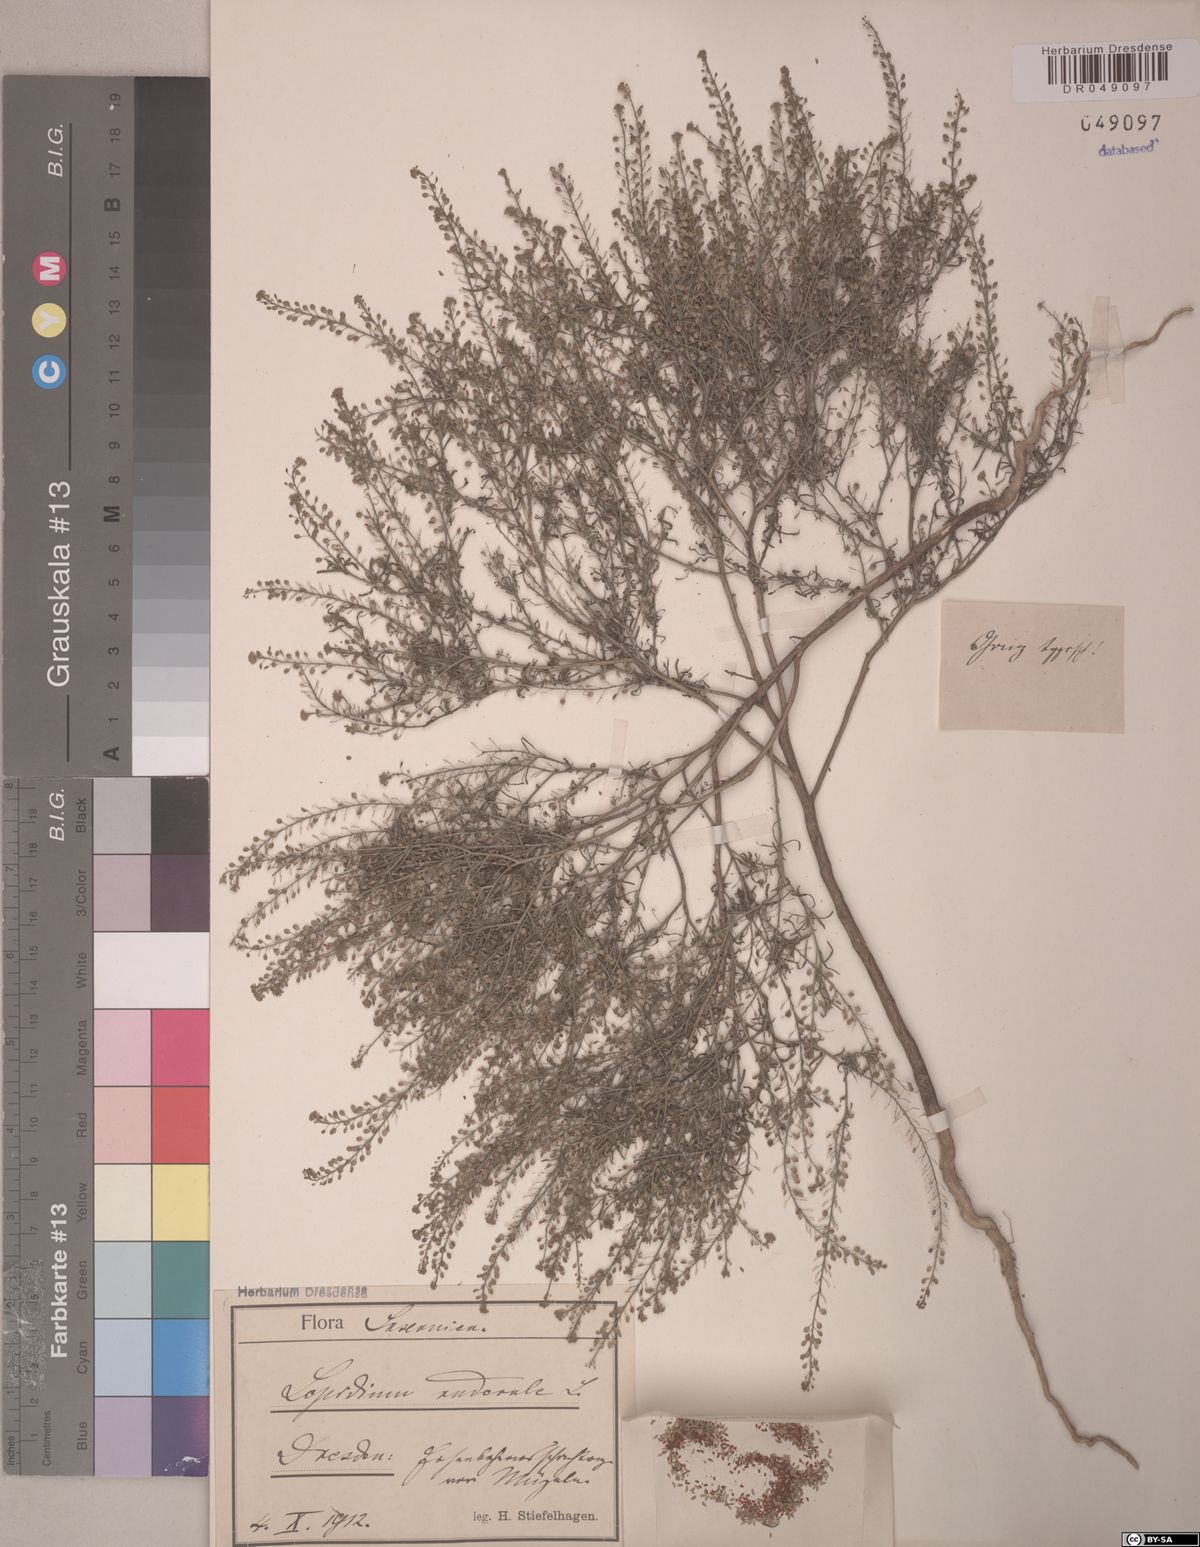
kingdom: Plantae
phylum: Tracheophyta
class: Magnoliopsida
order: Brassicales
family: Brassicaceae
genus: Lepidium
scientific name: Lepidium ruderale
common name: Narrow-leaved pepperwort
